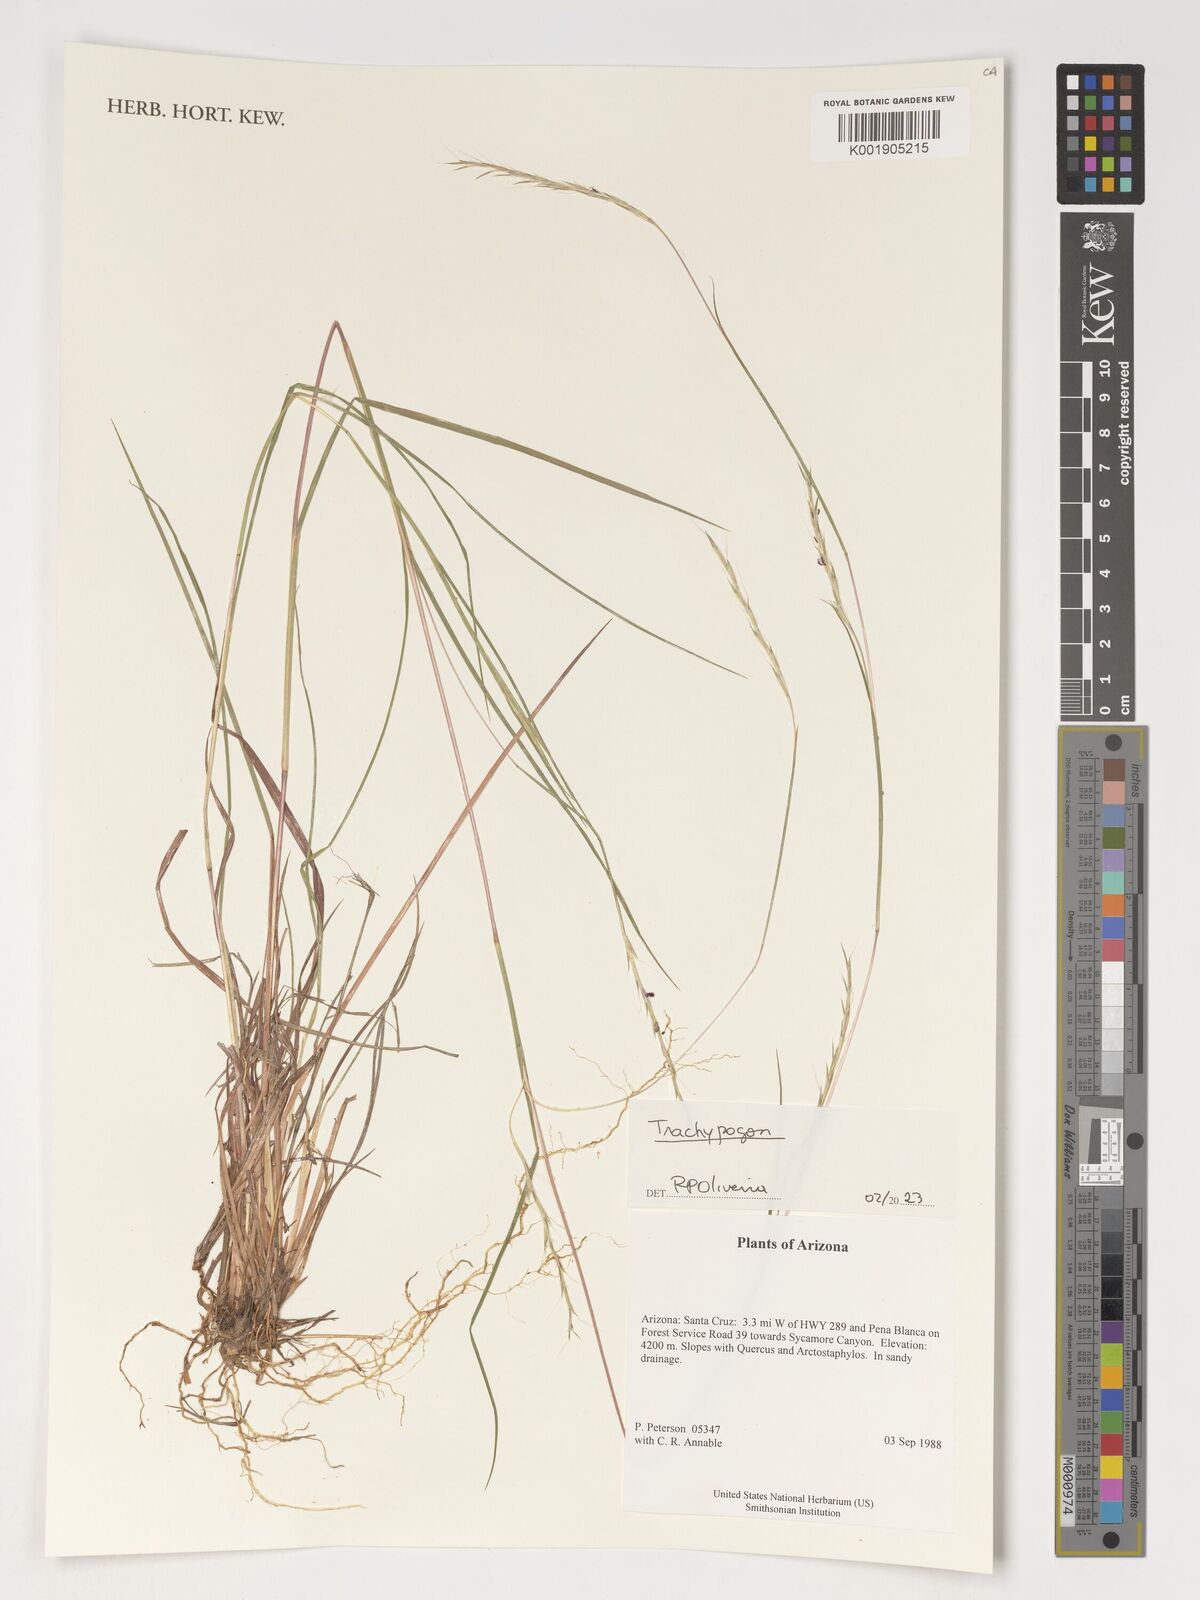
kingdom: Plantae
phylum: Tracheophyta
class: Liliopsida
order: Poales
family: Poaceae
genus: Trachypogon
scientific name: Trachypogon
